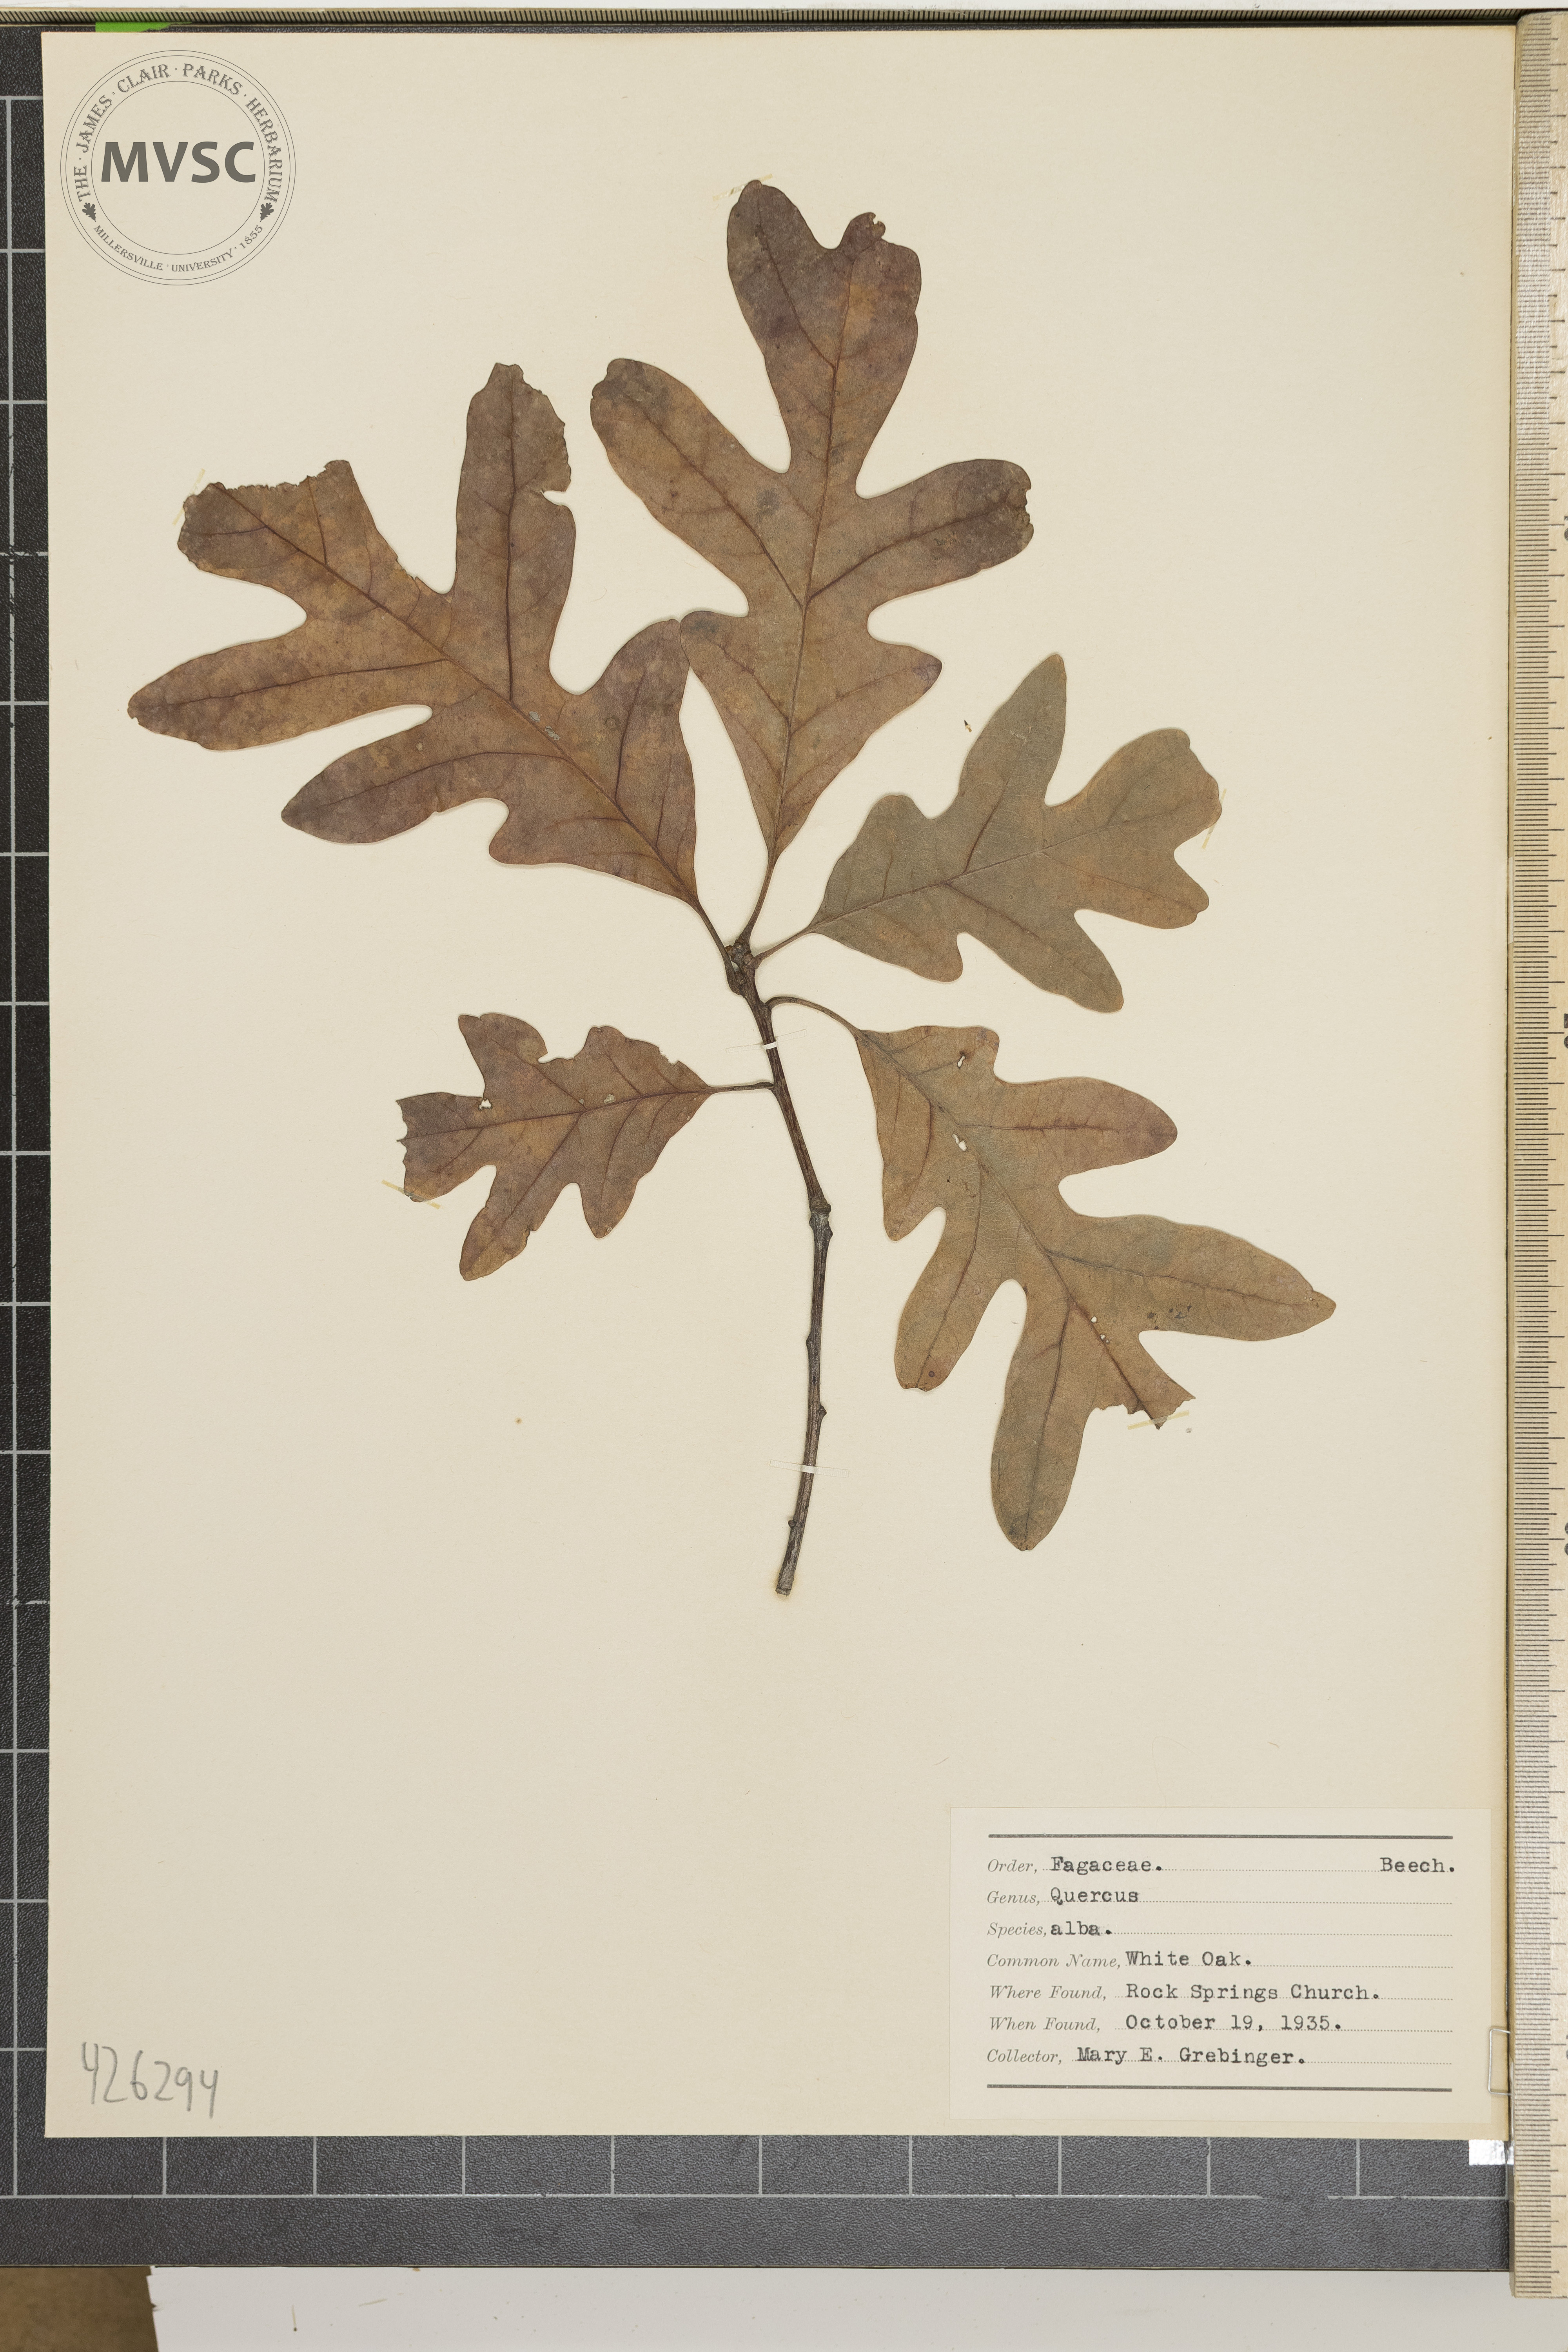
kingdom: Plantae
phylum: Tracheophyta
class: Magnoliopsida
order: Fagales
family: Fagaceae
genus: Quercus
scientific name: Quercus alba
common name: White Oak
